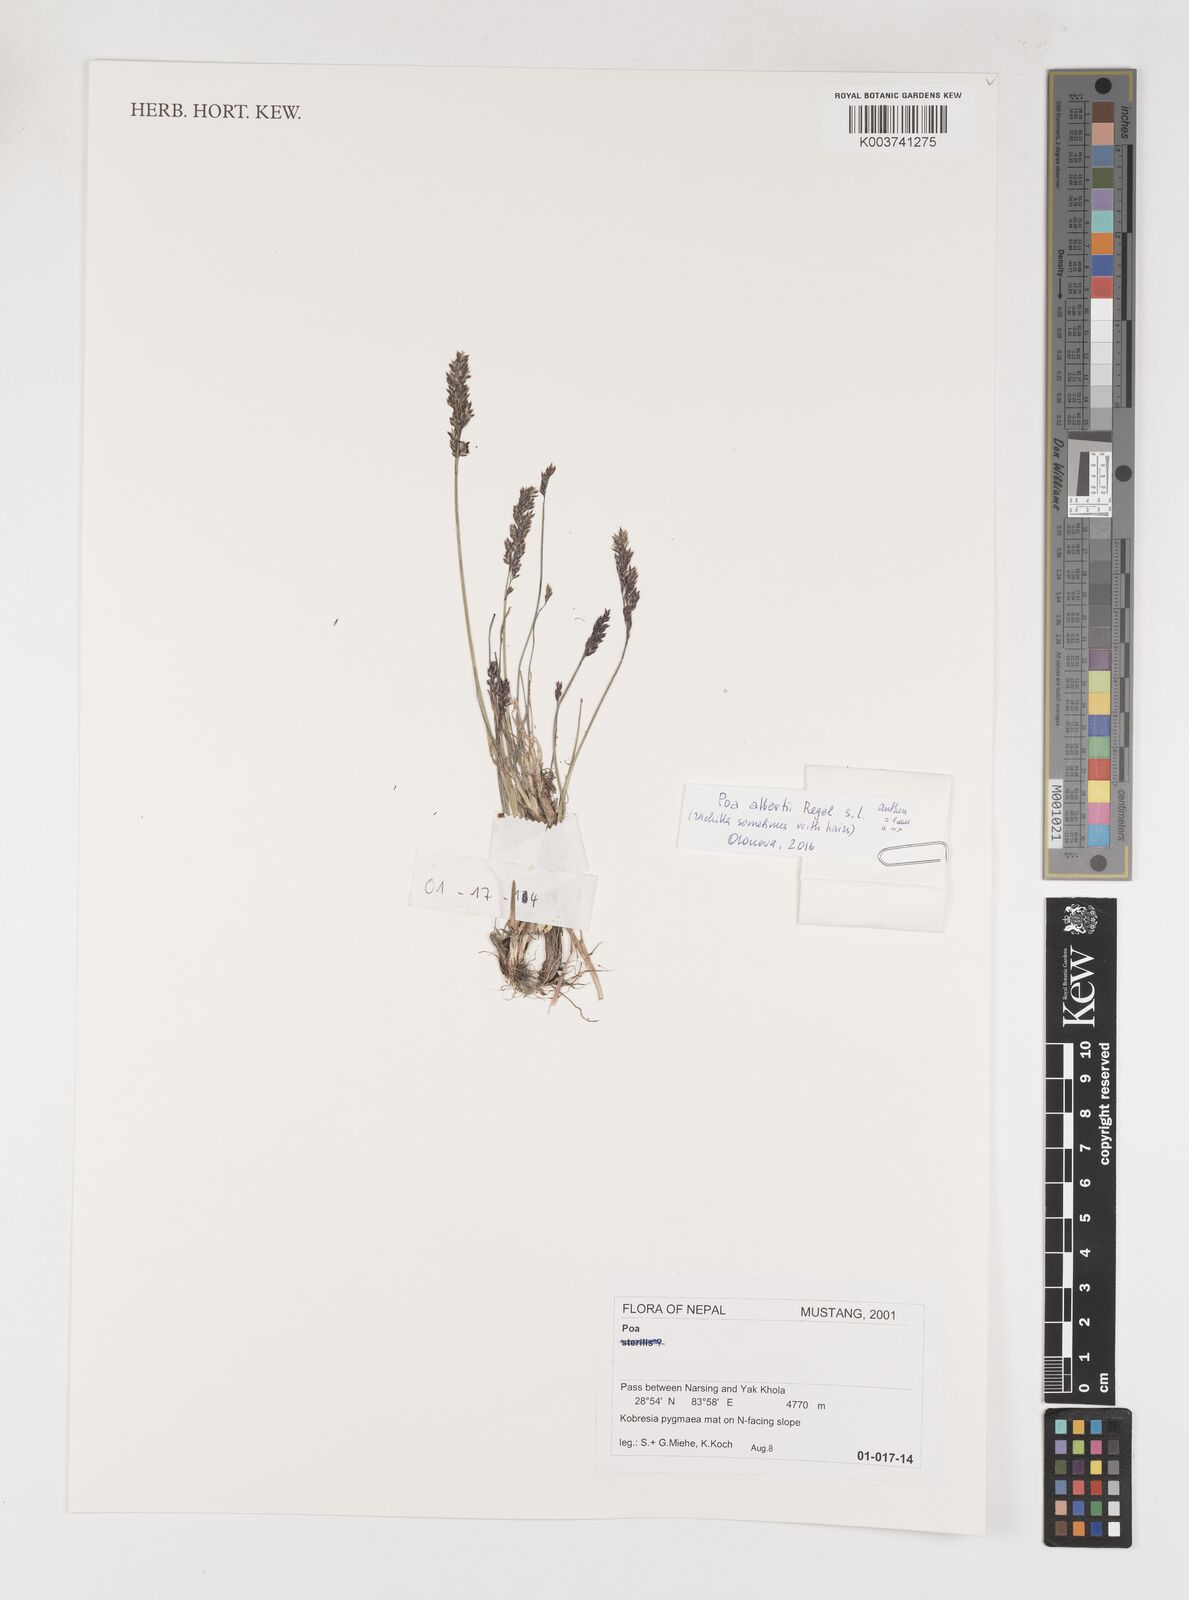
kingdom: Plantae
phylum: Tracheophyta
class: Liliopsida
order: Poales
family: Poaceae
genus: Poa
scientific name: Poa
